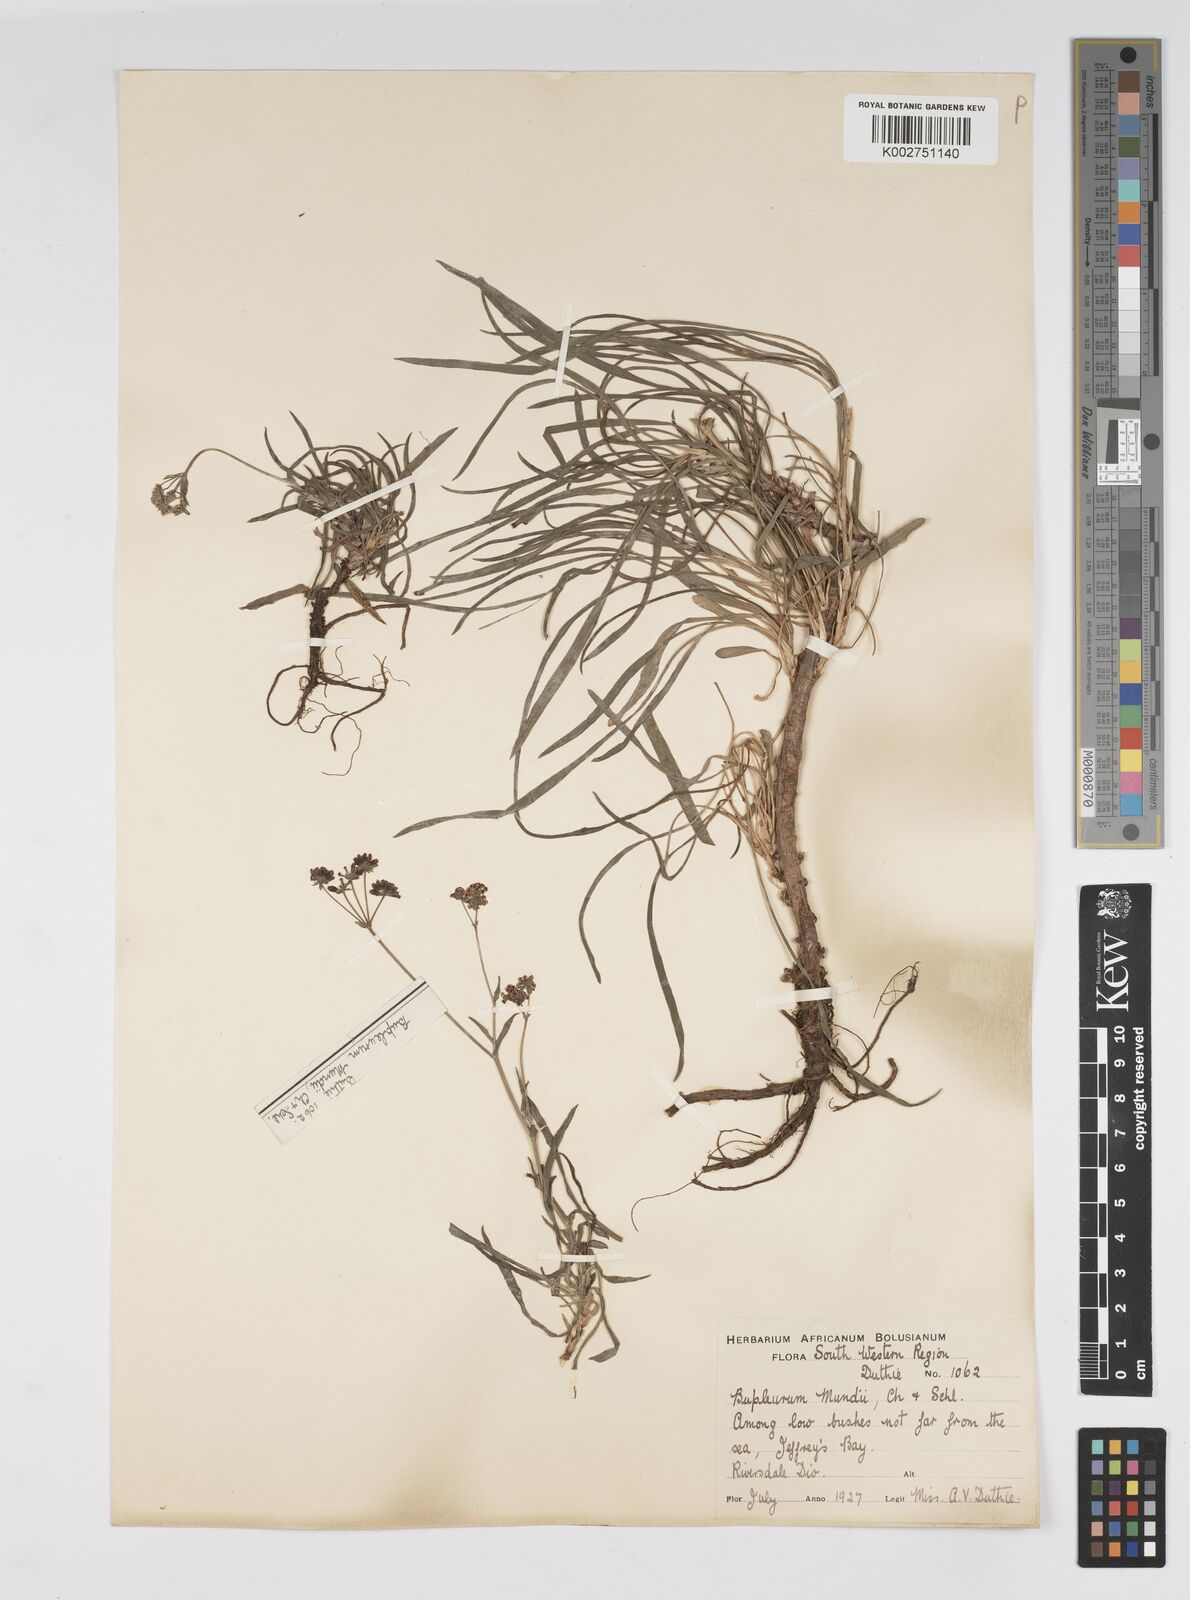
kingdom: Plantae
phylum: Tracheophyta
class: Magnoliopsida
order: Apiales
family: Apiaceae
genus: Bupleurum
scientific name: Bupleurum mundii
